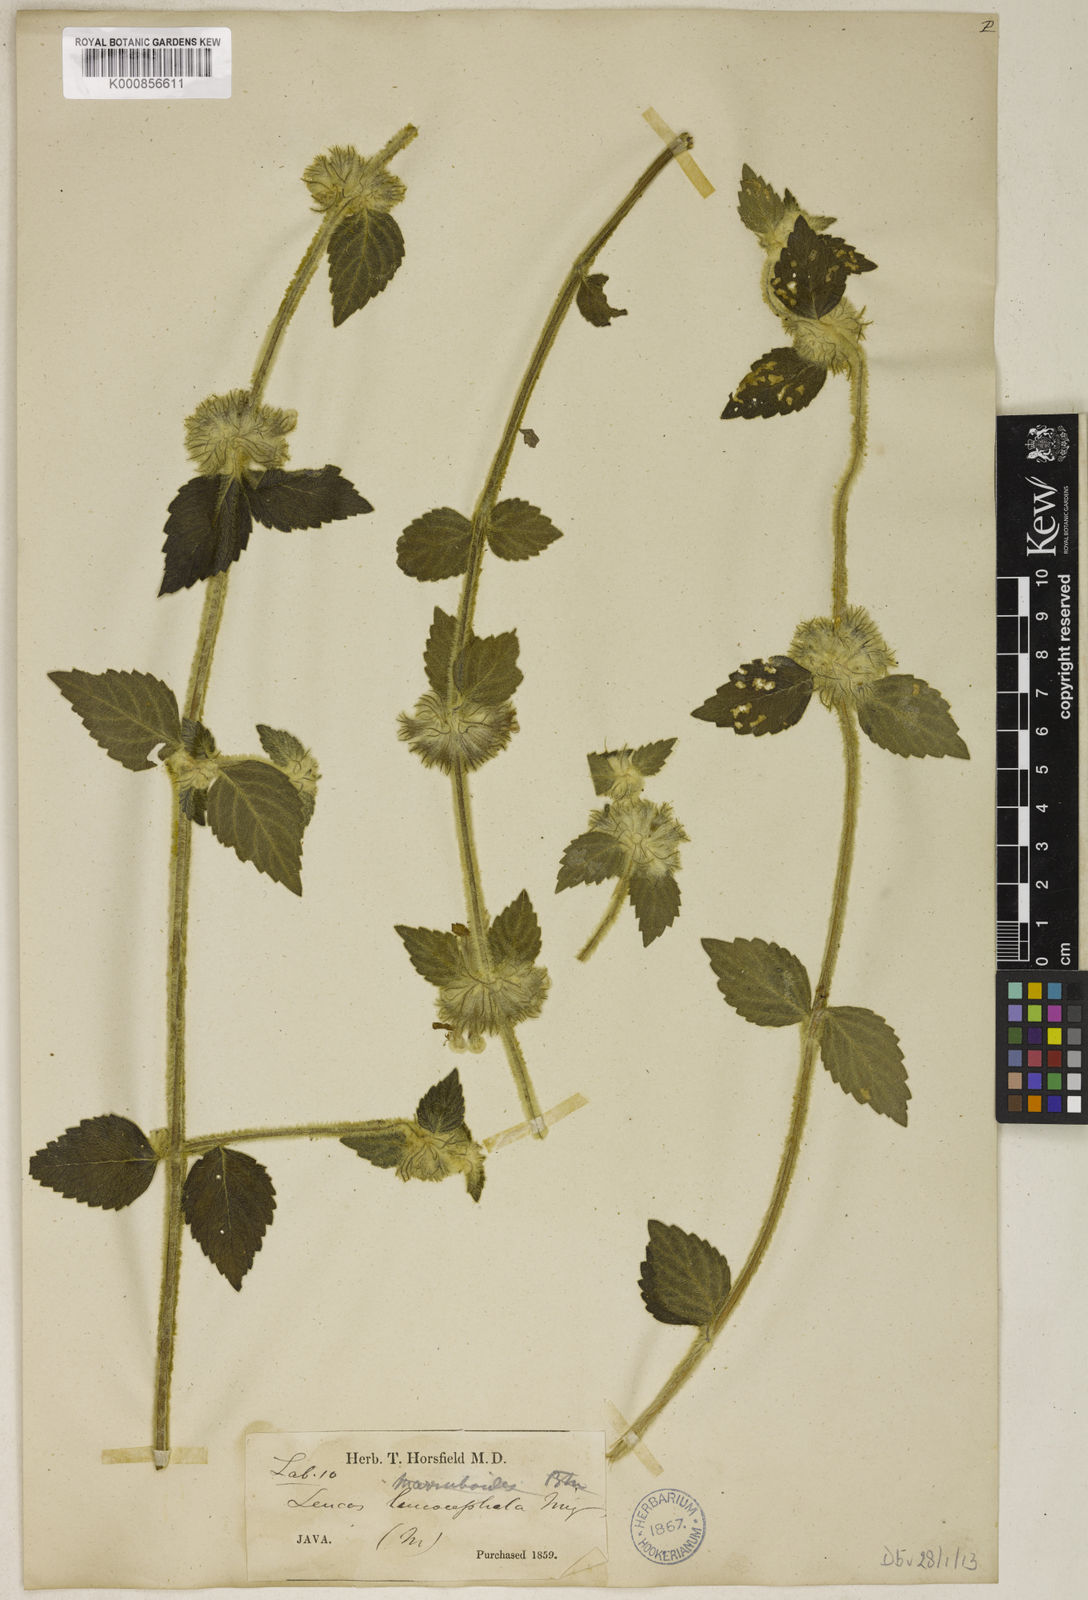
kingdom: Plantae
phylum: Tracheophyta
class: Magnoliopsida
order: Lamiales
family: Lamiaceae
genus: Leucas
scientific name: Leucas leucocephala
